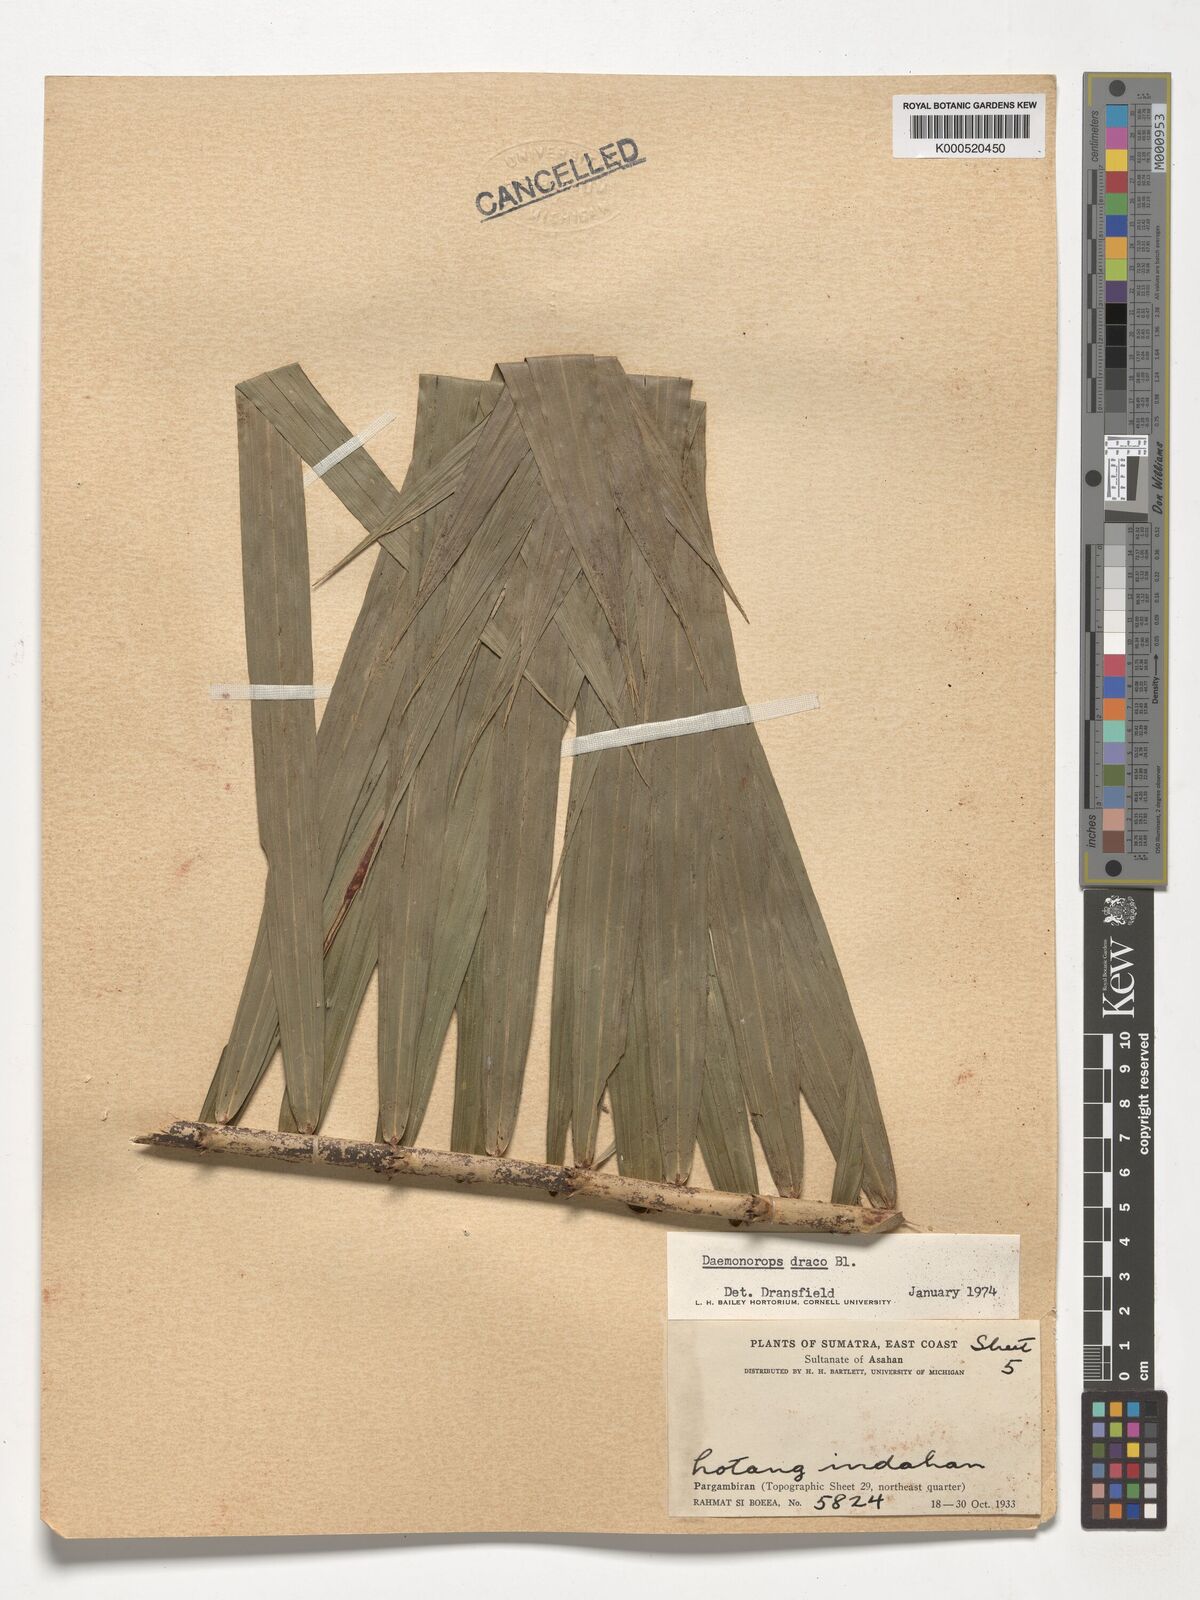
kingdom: Plantae
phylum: Tracheophyta
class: Liliopsida
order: Arecales
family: Arecaceae
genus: Calamus
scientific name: Calamus draco
